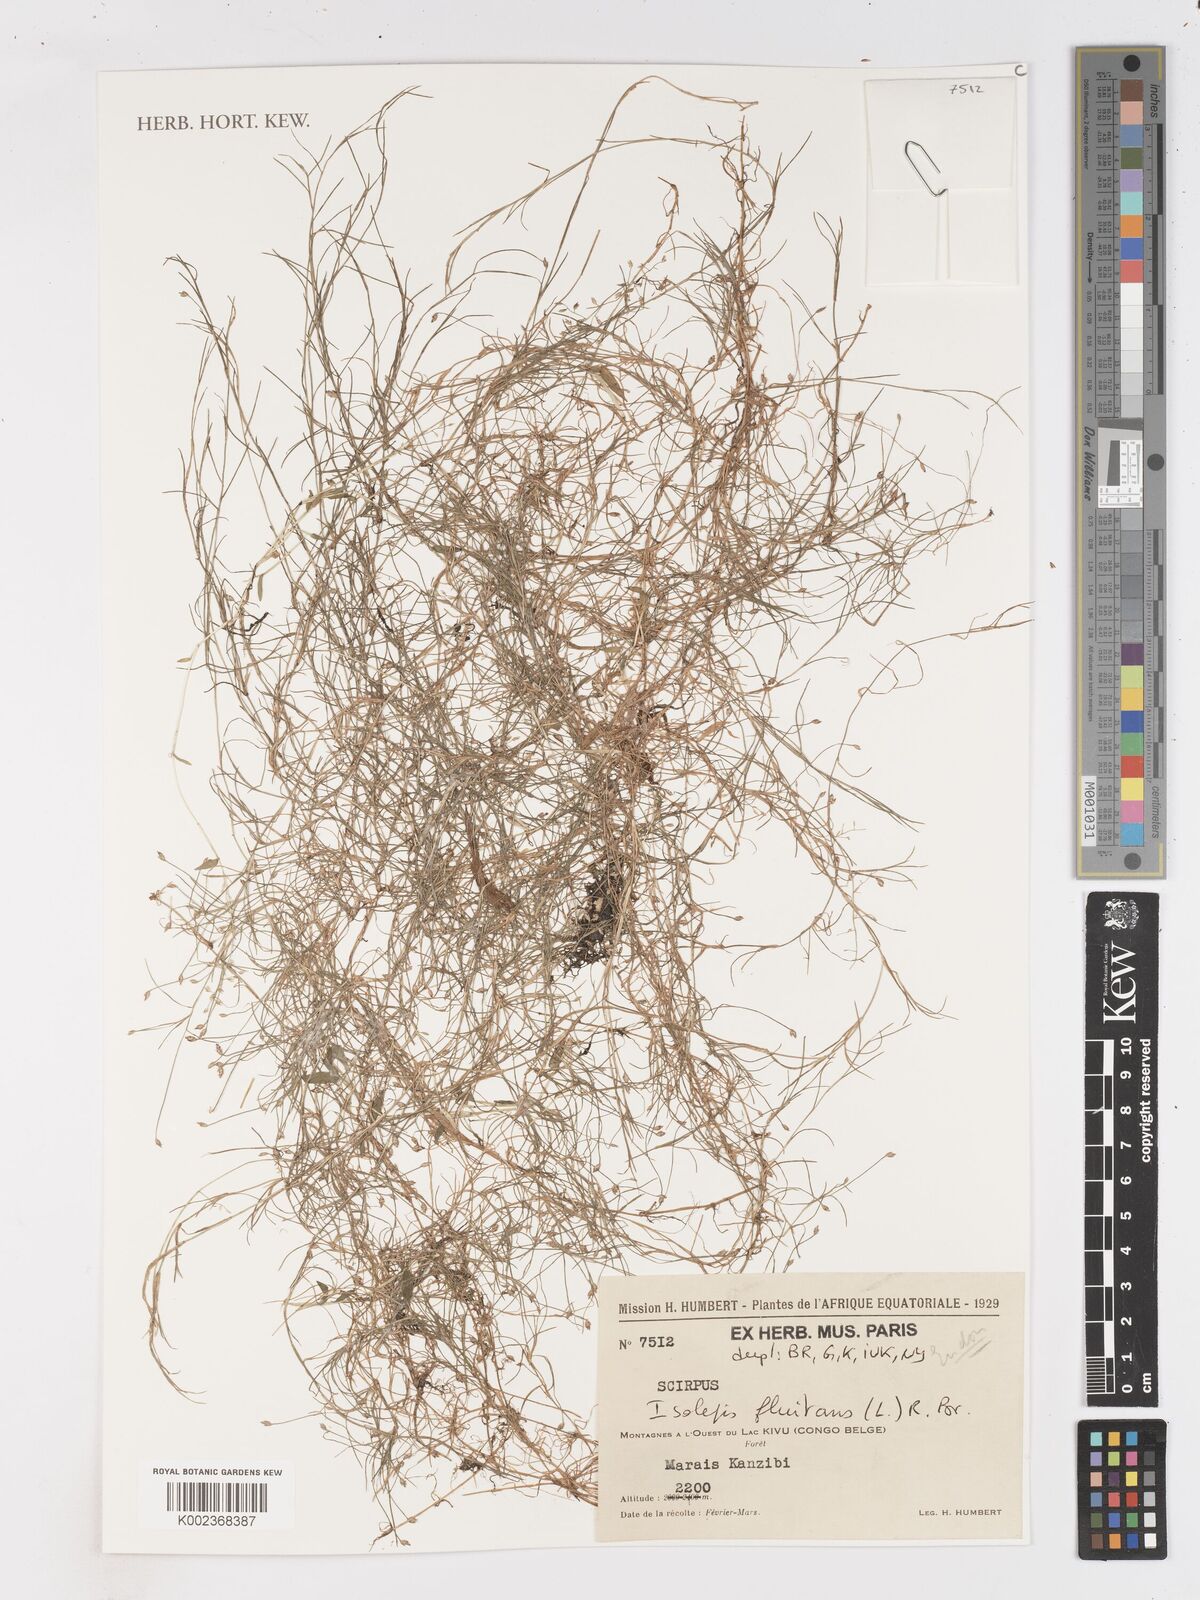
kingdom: Plantae
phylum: Tracheophyta
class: Liliopsida
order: Poales
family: Cyperaceae
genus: Isolepis
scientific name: Isolepis fluitans
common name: Floating club-rush
